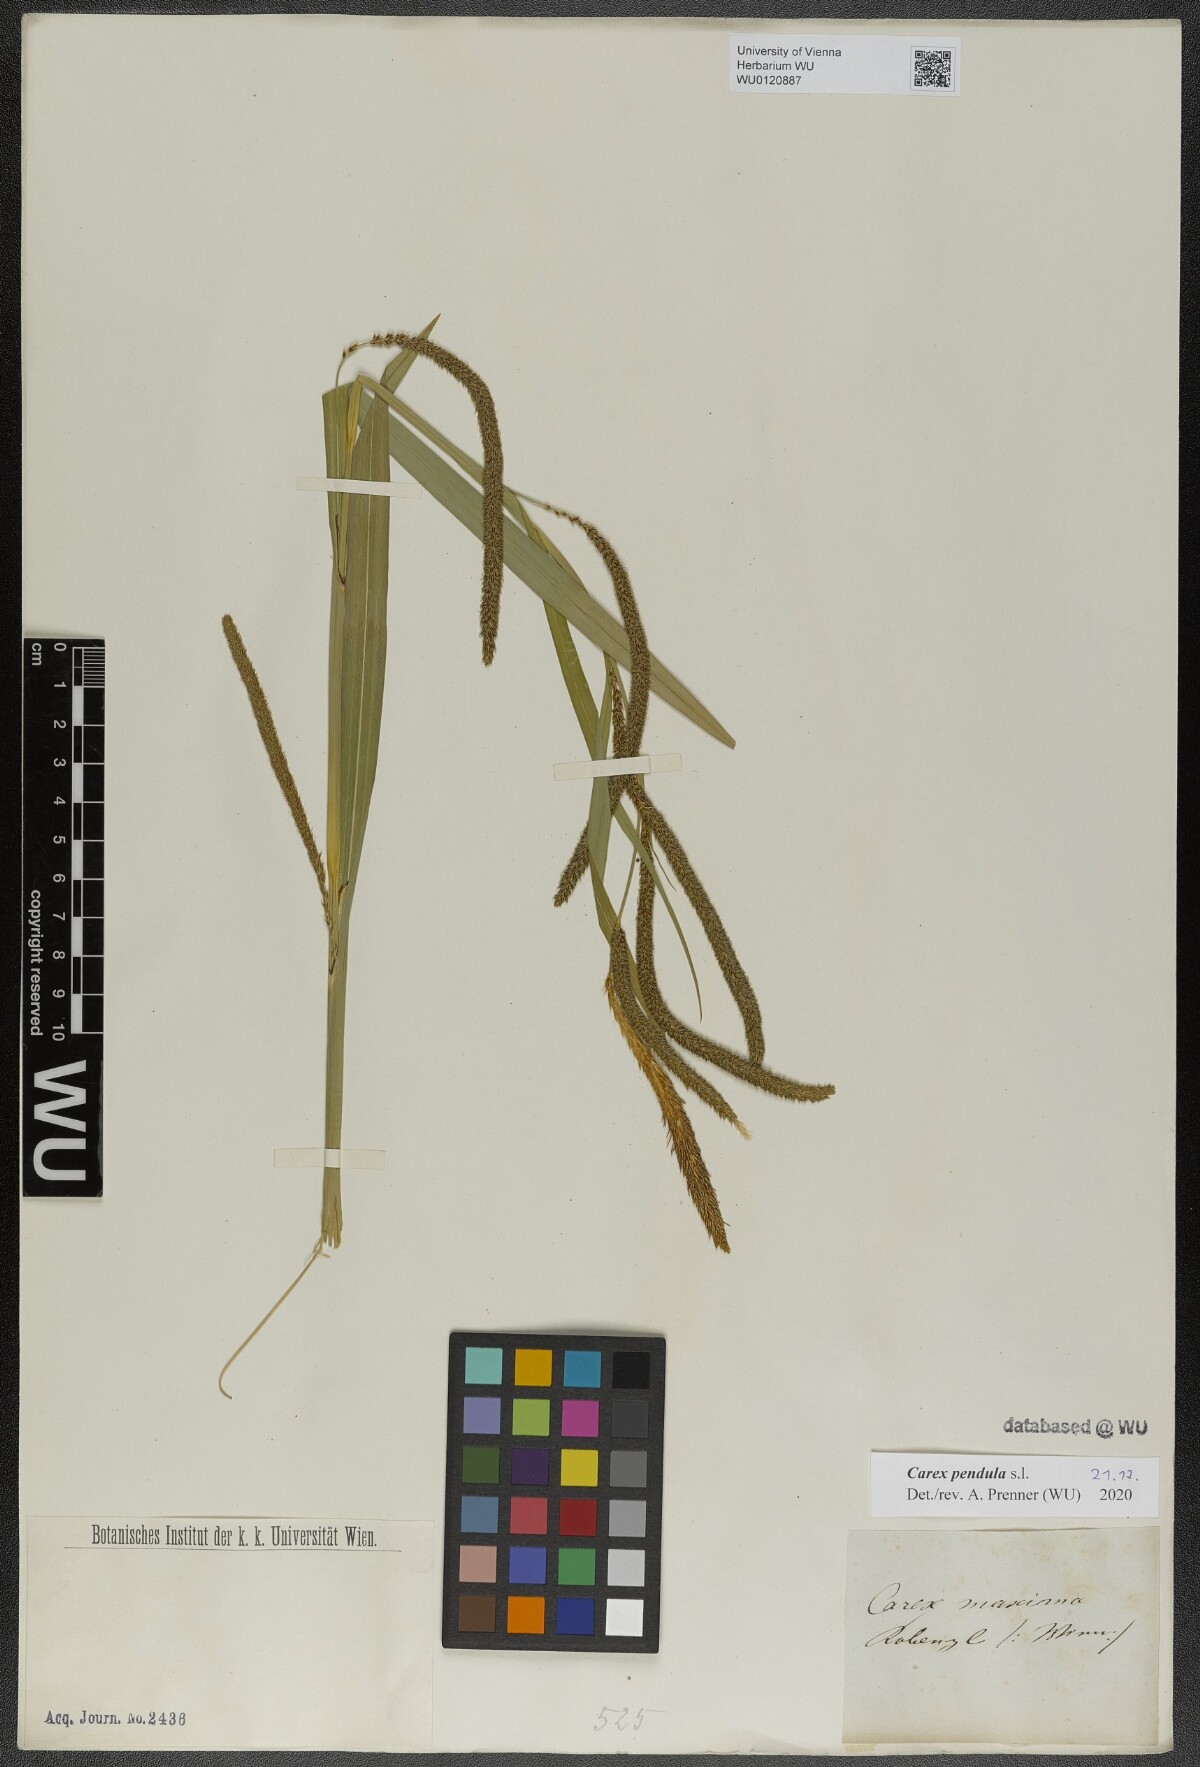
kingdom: Plantae
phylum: Tracheophyta
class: Liliopsida
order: Poales
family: Cyperaceae
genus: Carex
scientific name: Carex pendula
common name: Pendulous sedge
